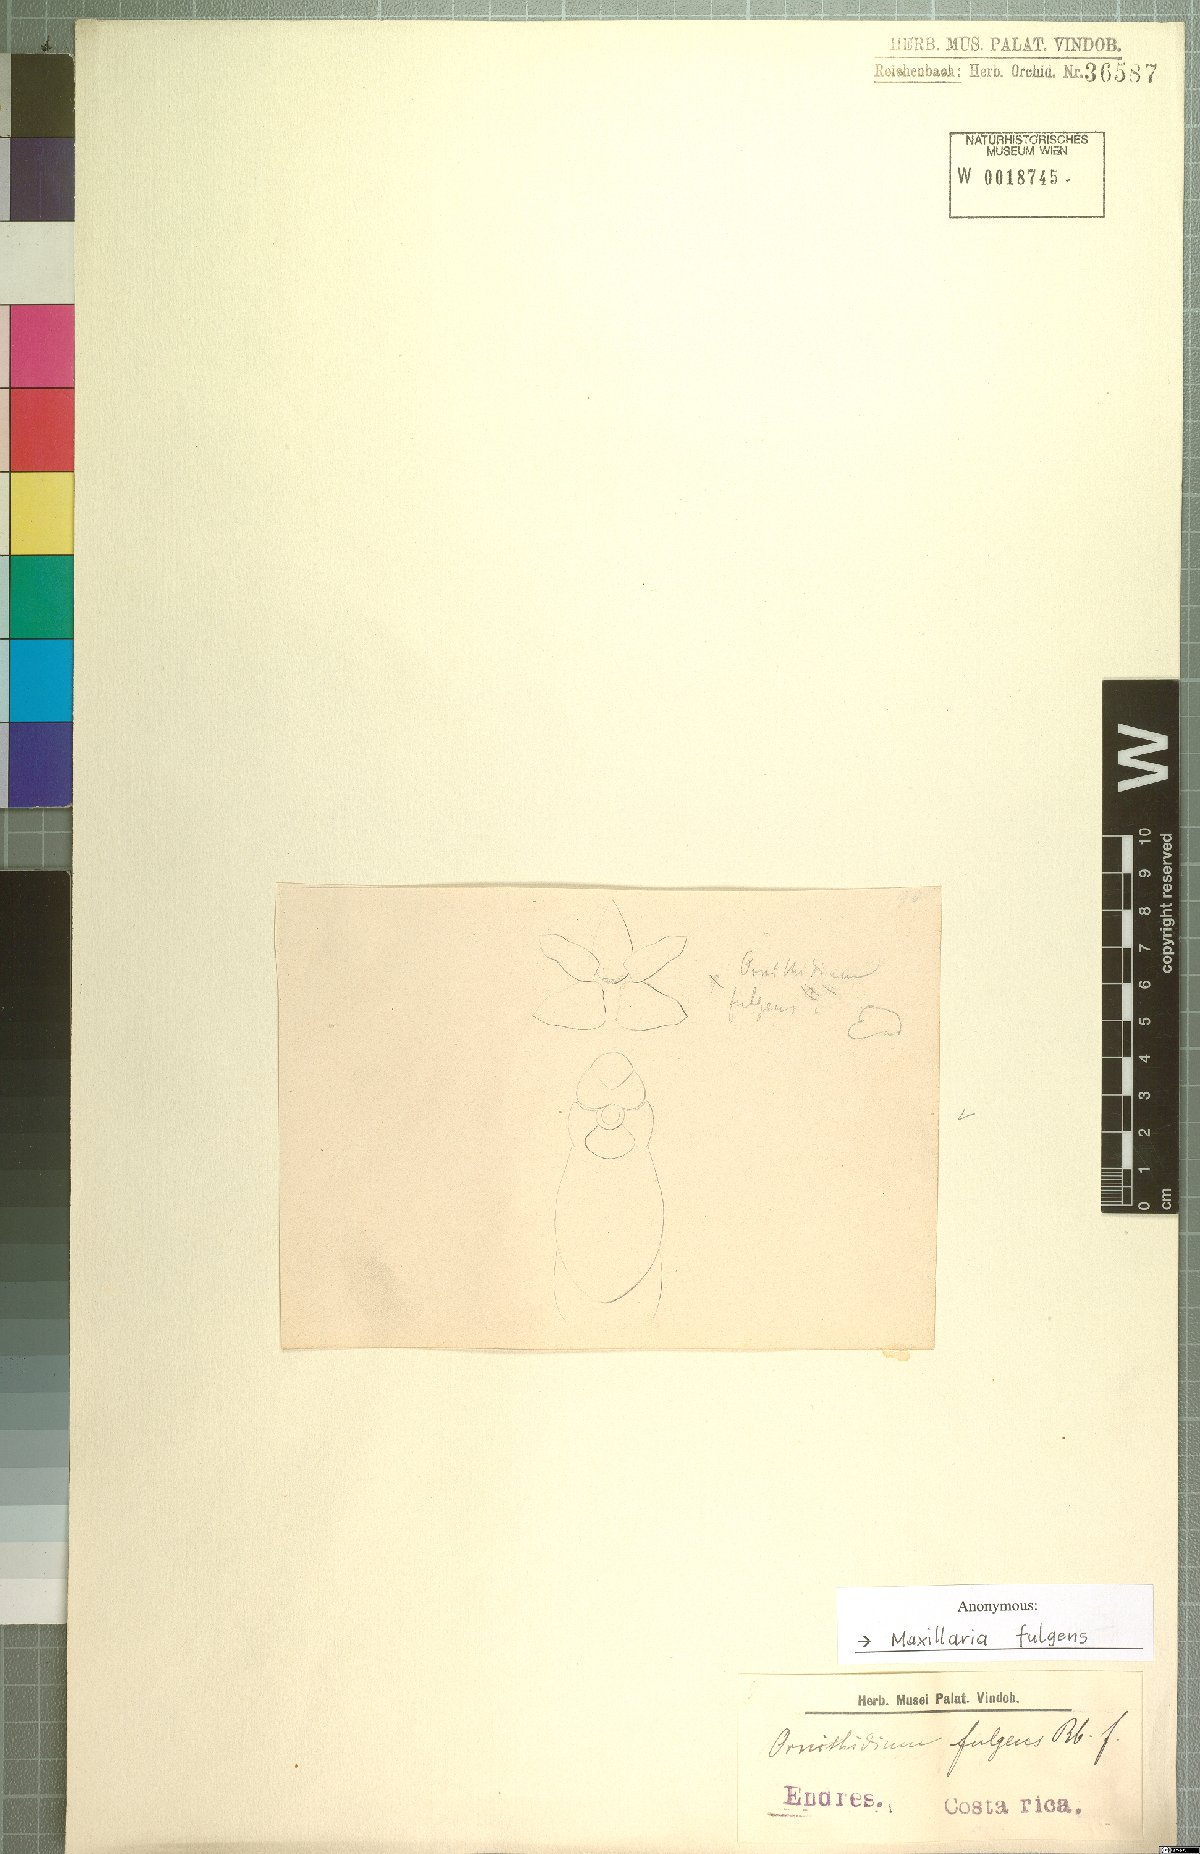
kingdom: Plantae
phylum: Tracheophyta
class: Liliopsida
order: Asparagales
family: Orchidaceae
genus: Maxillaria
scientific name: Maxillaria fulgens
